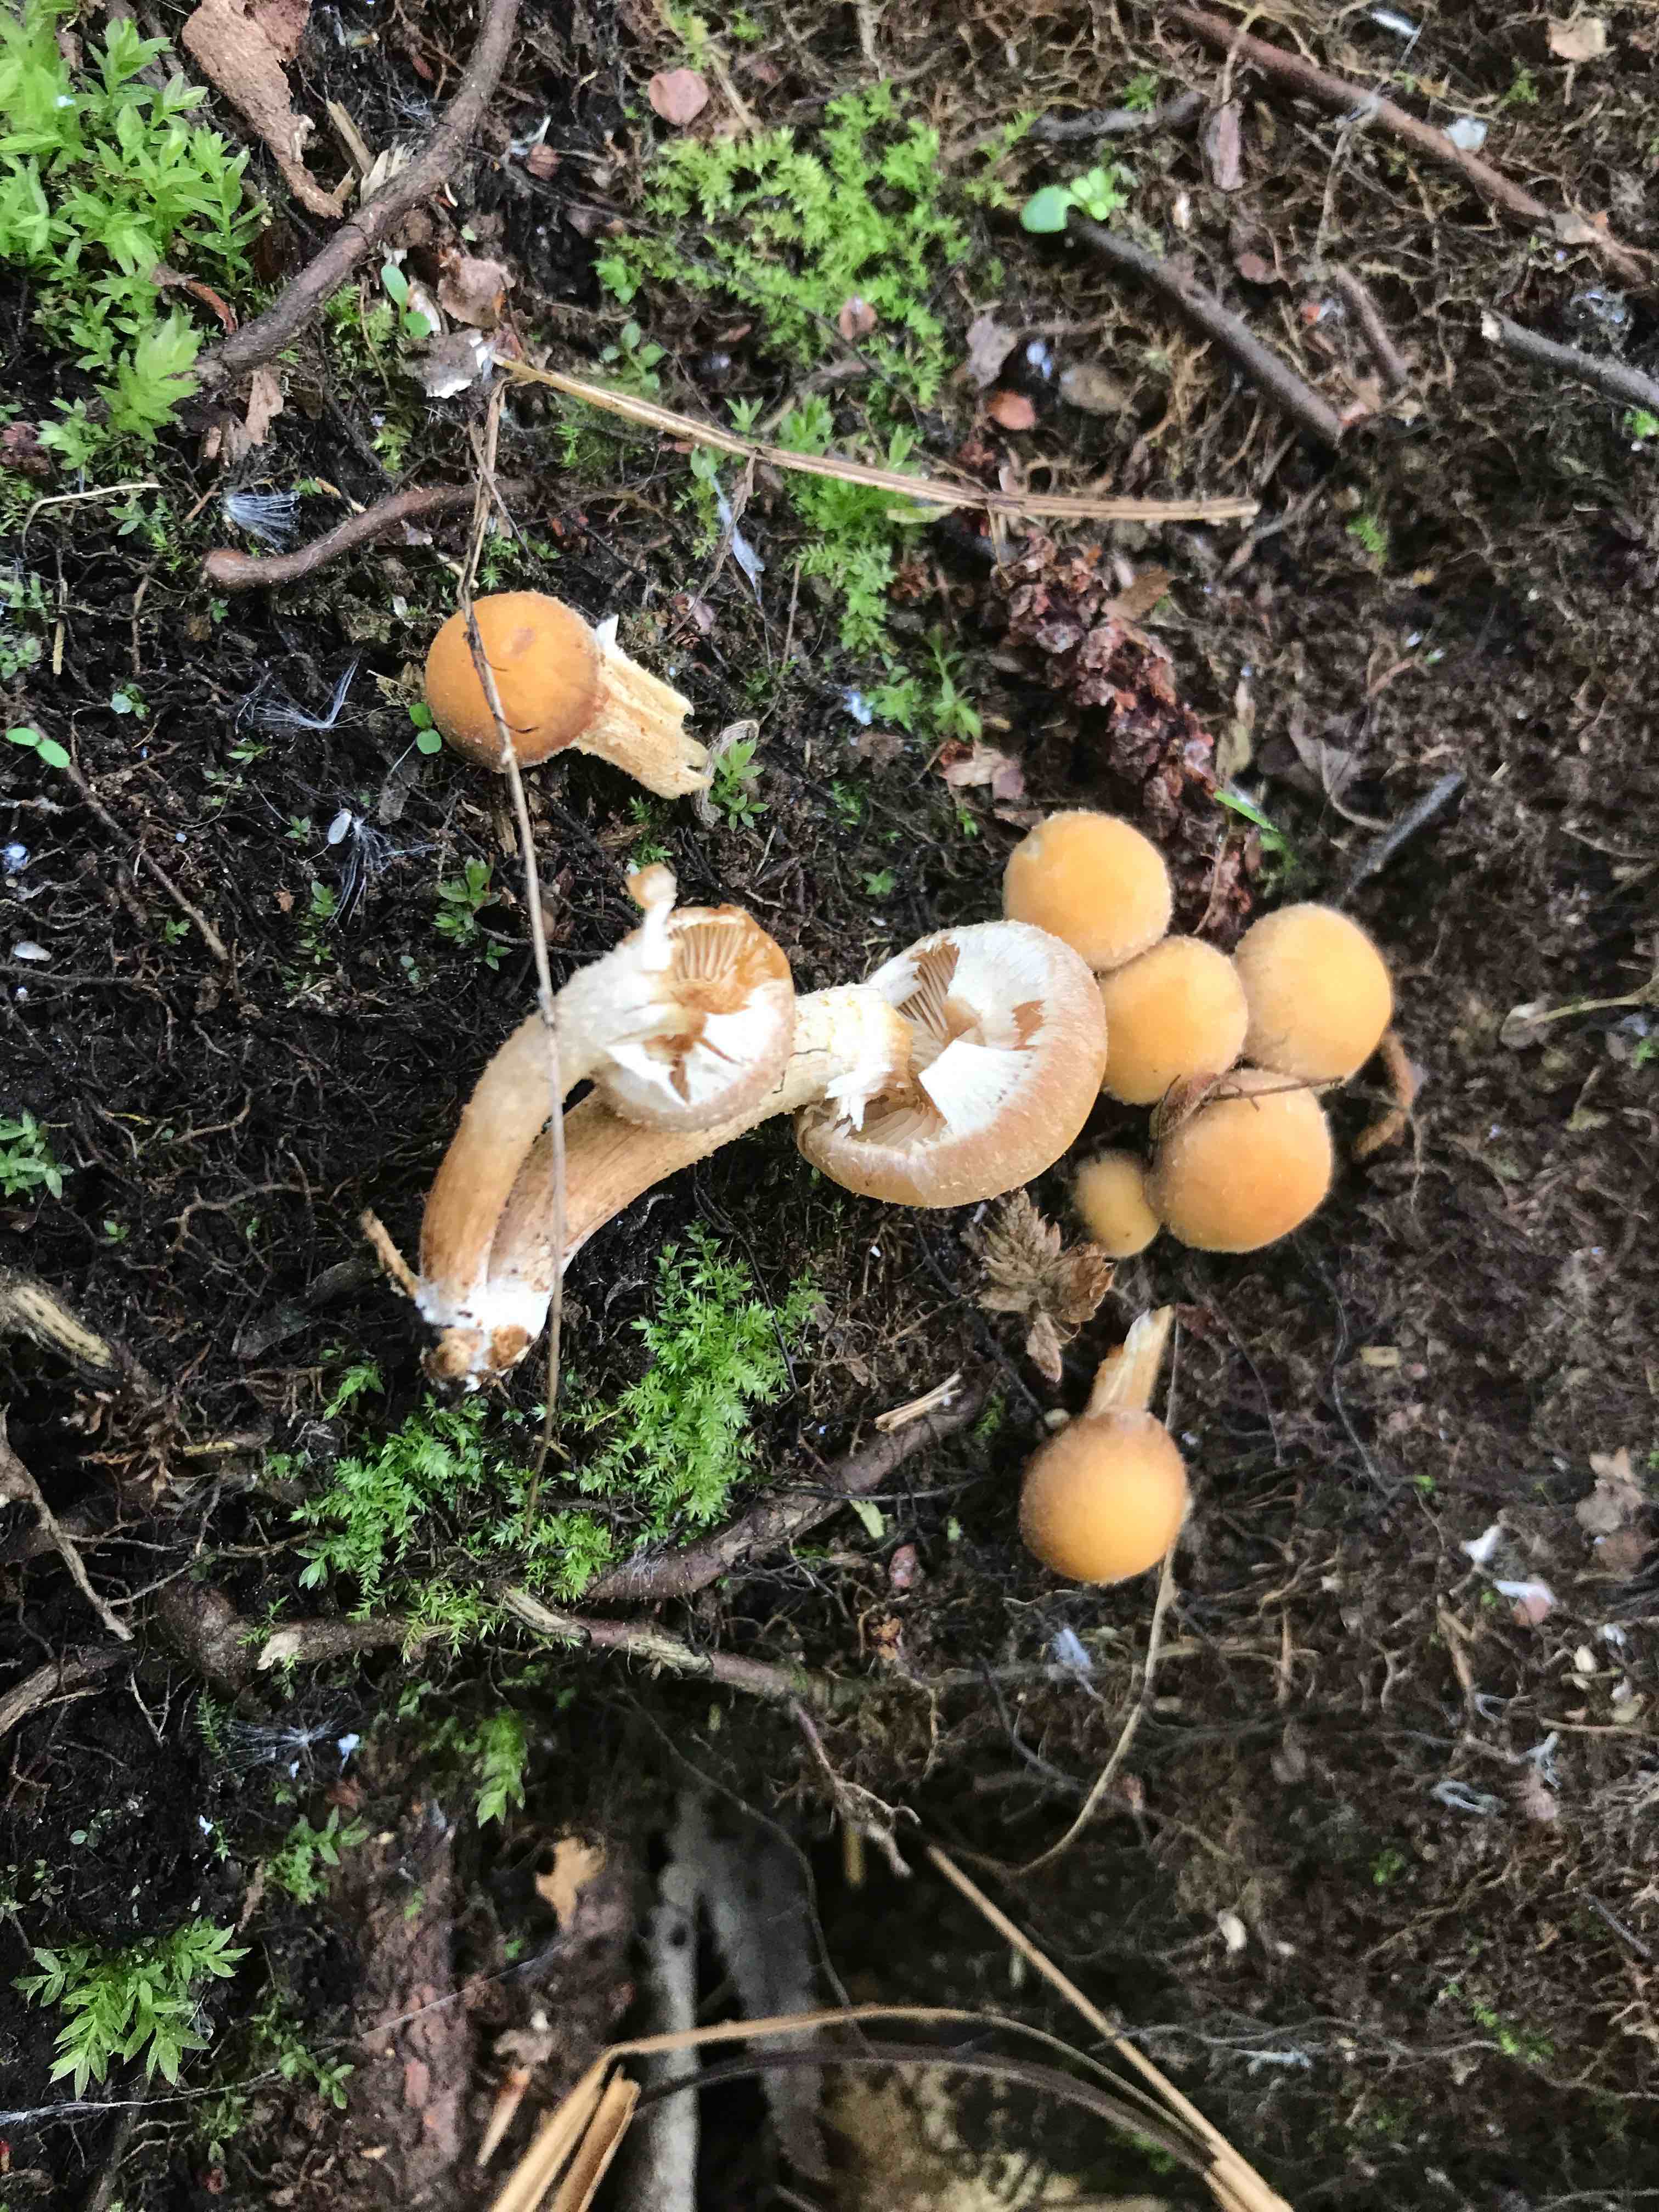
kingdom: Fungi
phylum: Basidiomycota
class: Agaricomycetes
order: Agaricales
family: Strophariaceae
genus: Kuehneromyces
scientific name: Kuehneromyces mutabilis
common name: foranderlig skælhat
